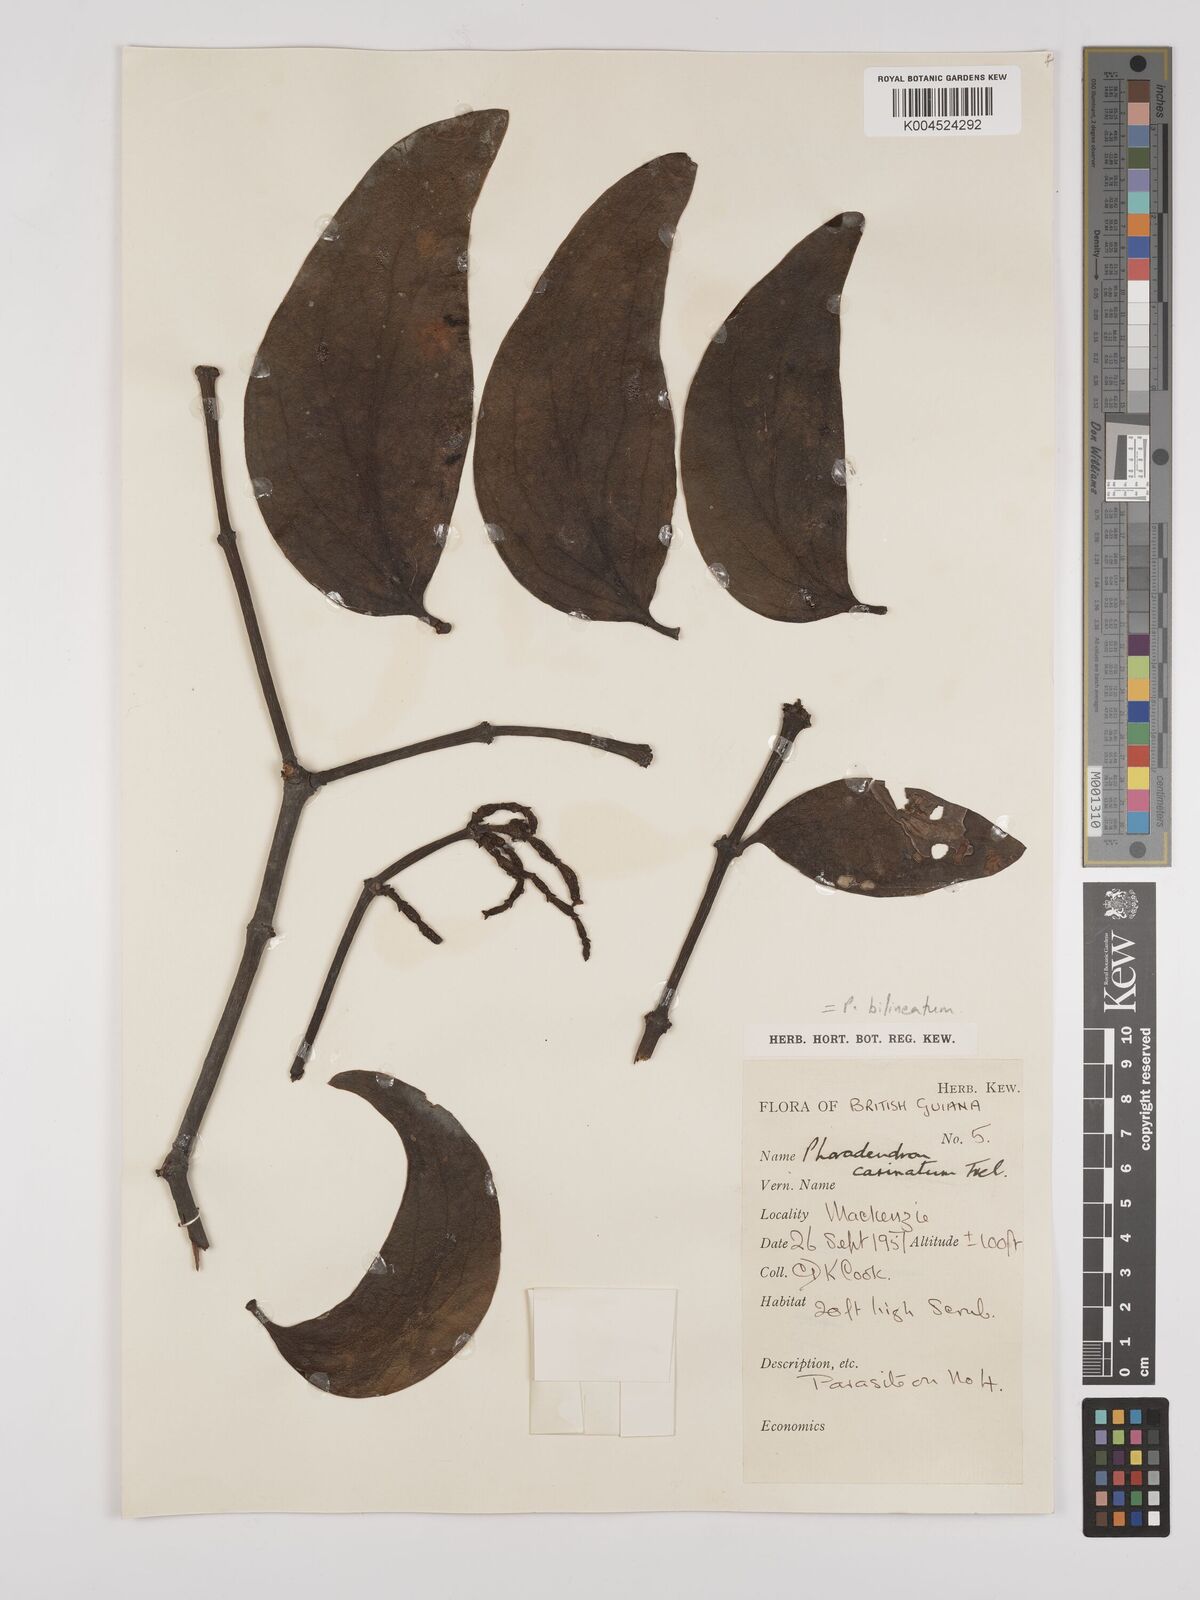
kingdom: Plantae
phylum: Tracheophyta
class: Magnoliopsida
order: Santalales
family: Viscaceae
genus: Phoradendron
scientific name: Phoradendron bilineatum
